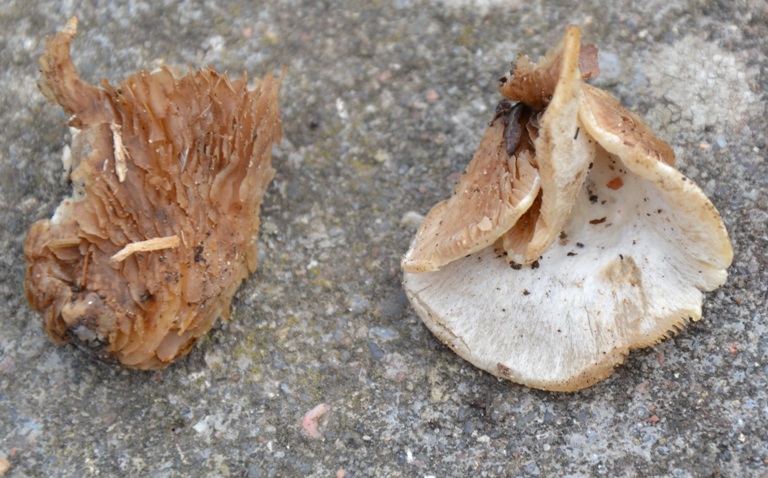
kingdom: Fungi
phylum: Basidiomycota
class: Agaricomycetes
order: Agaricales
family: Crepidotaceae
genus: Crepidotus
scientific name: Crepidotus autochthonus
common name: skæv muslingesvamp
